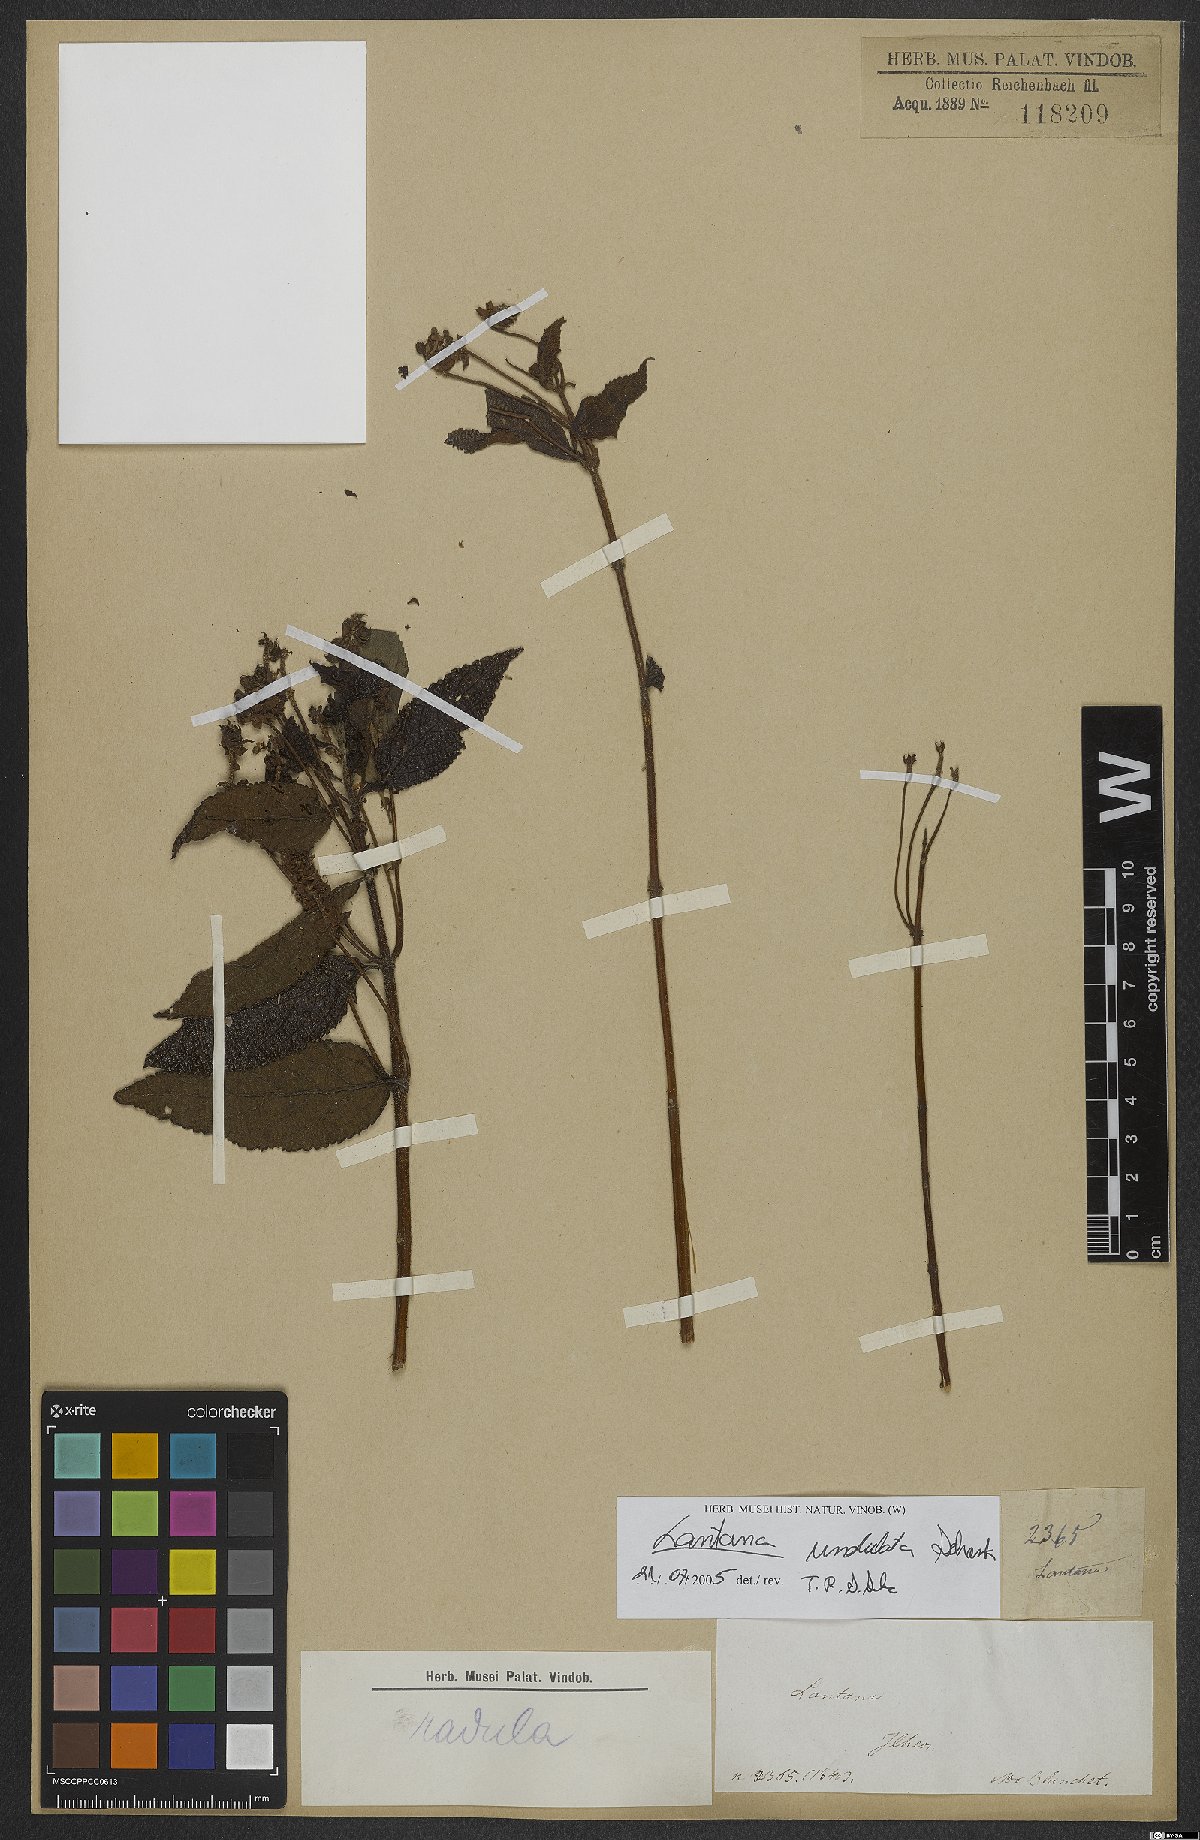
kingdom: Plantae
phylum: Tracheophyta
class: Magnoliopsida
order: Lamiales
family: Verbenaceae
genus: Lantana
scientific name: Lantana undulata
